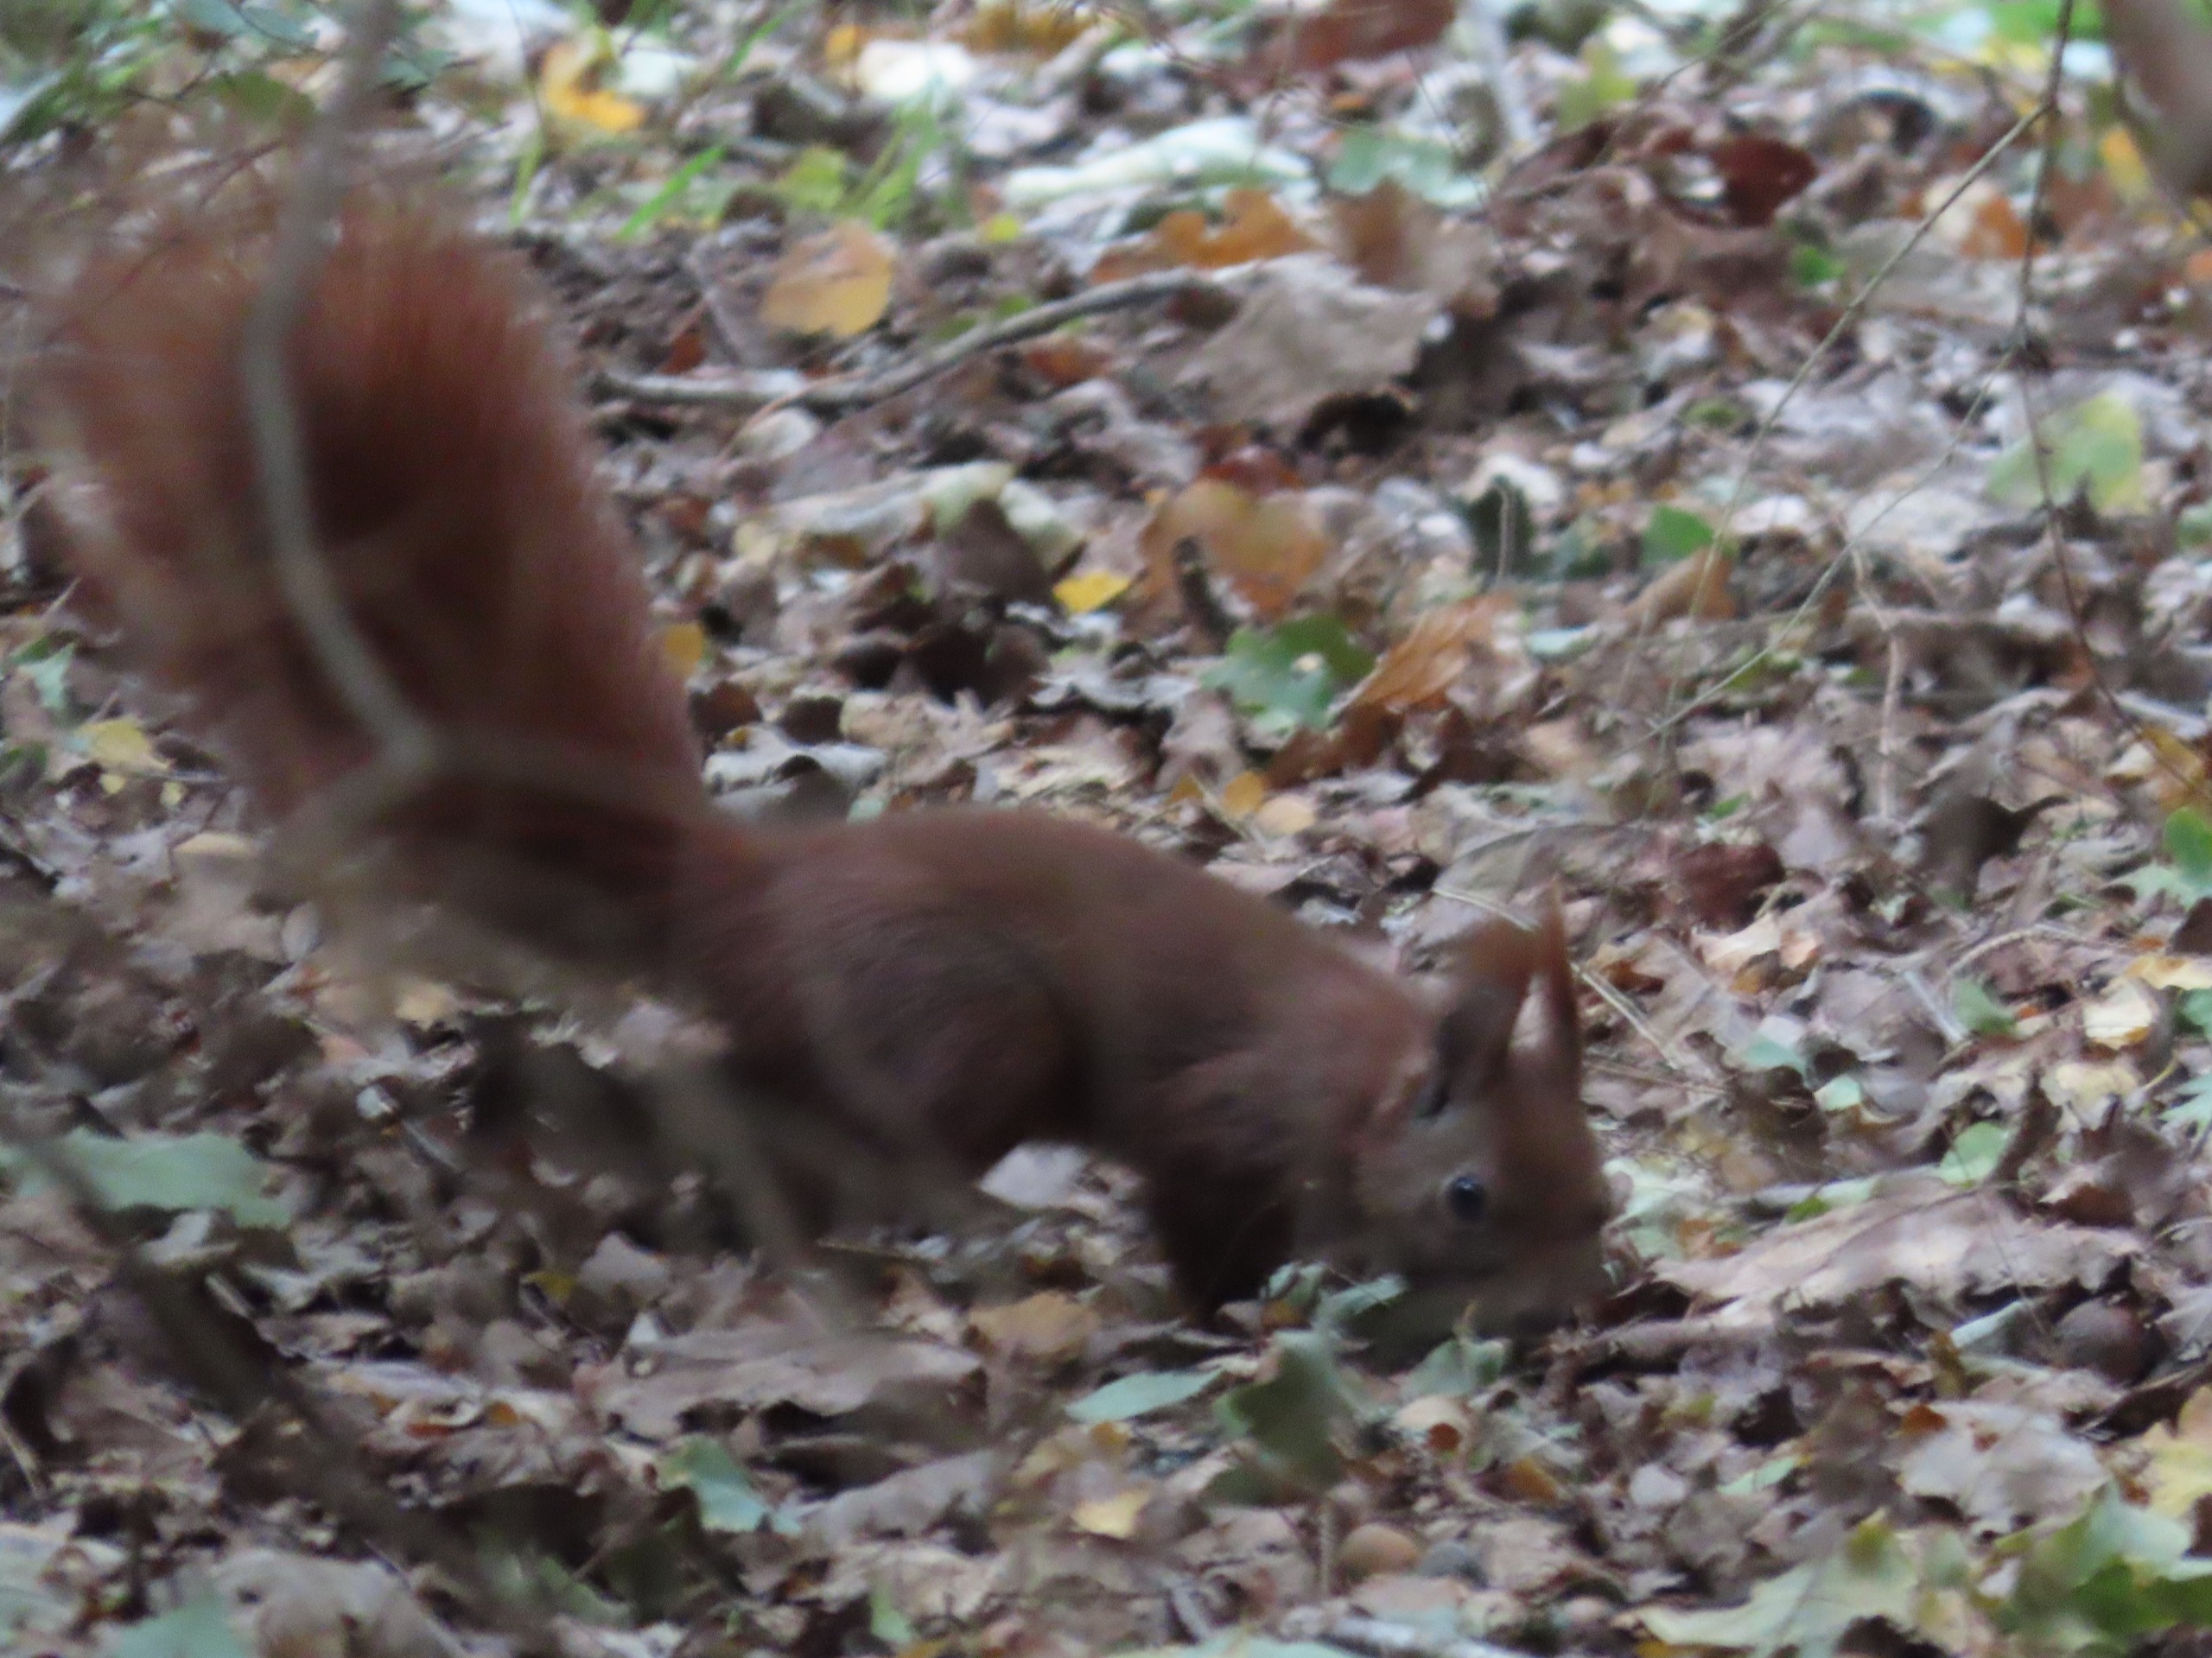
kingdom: Animalia
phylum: Chordata
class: Mammalia
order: Rodentia
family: Sciuridae
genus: Sciurus
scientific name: Sciurus vulgaris
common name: Egern
